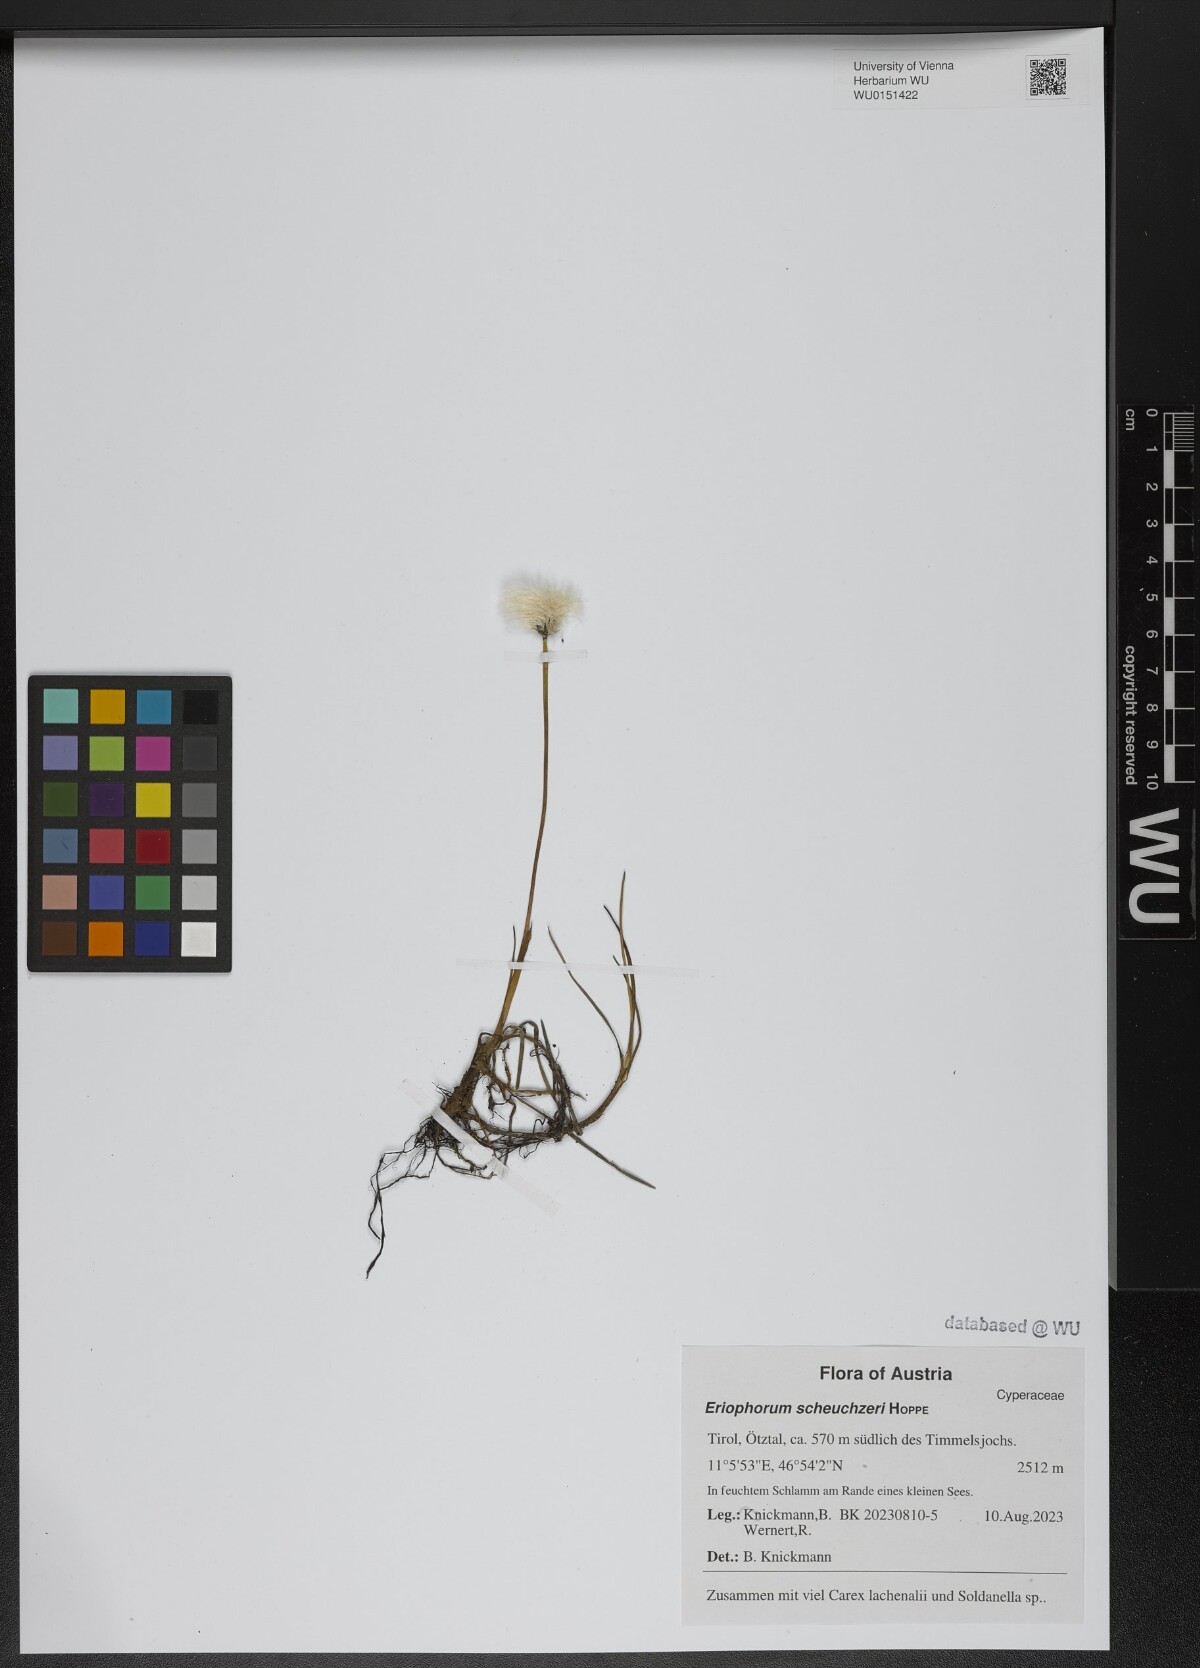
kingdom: Plantae
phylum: Tracheophyta
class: Liliopsida
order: Poales
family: Cyperaceae
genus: Eriophorum
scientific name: Eriophorum scheuchzeri
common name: Scheuchzer's cottongrass
